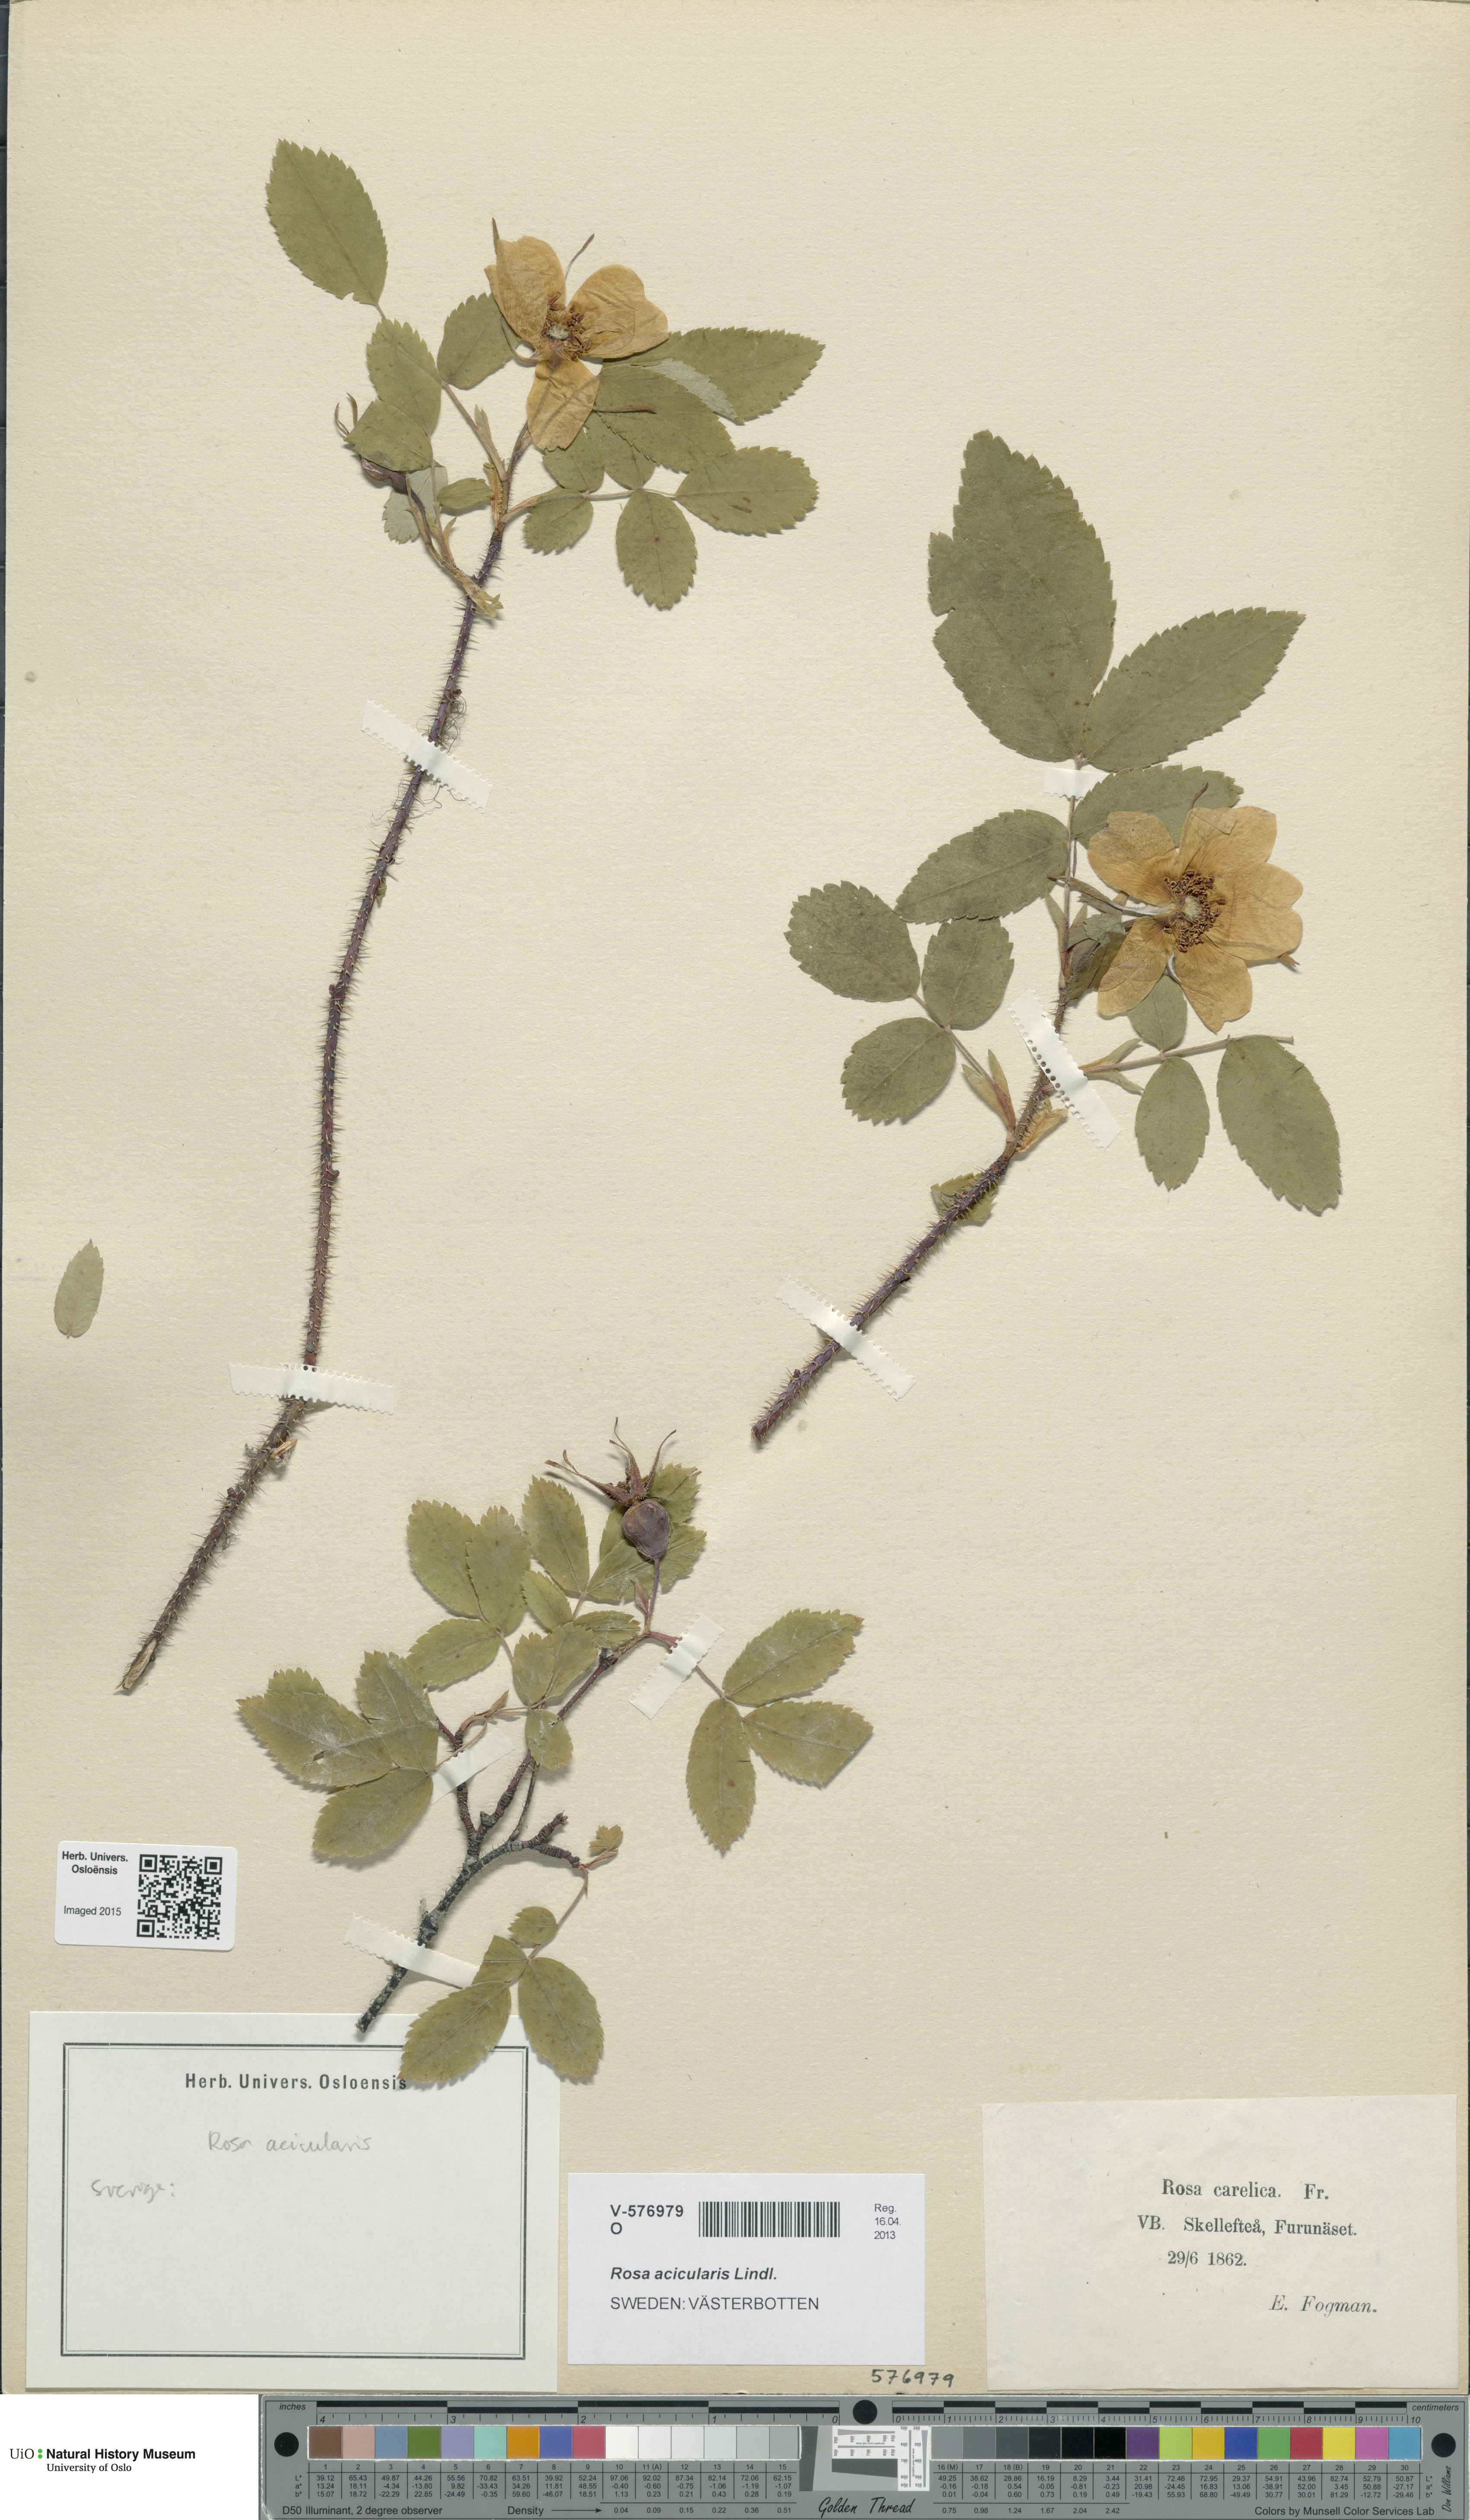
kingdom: Plantae
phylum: Tracheophyta
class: Magnoliopsida
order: Rosales
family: Rosaceae
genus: Rosa
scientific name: Rosa acicularis
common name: Prickly rose
